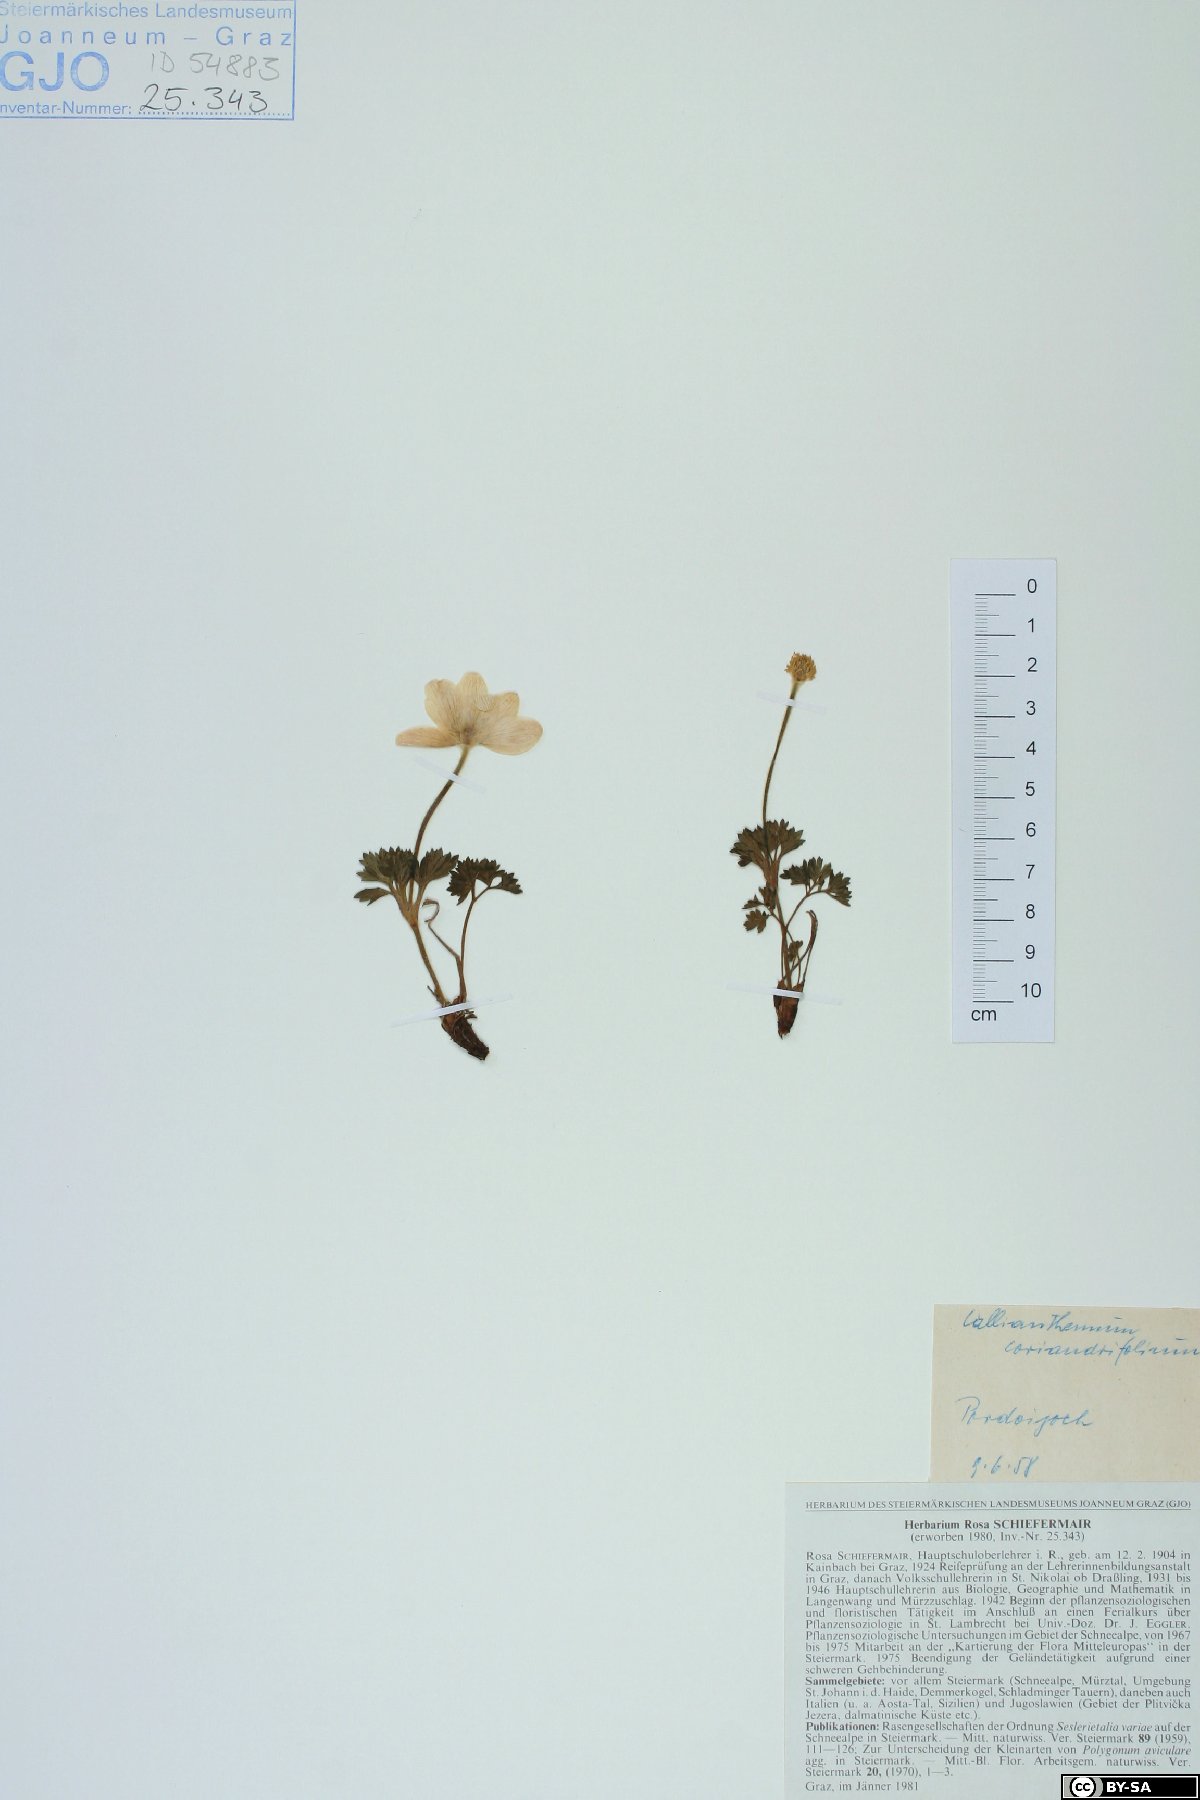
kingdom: Plantae
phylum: Tracheophyta
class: Magnoliopsida
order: Ranunculales
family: Ranunculaceae
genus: Callianthemum
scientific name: Callianthemum coriandrifolium
